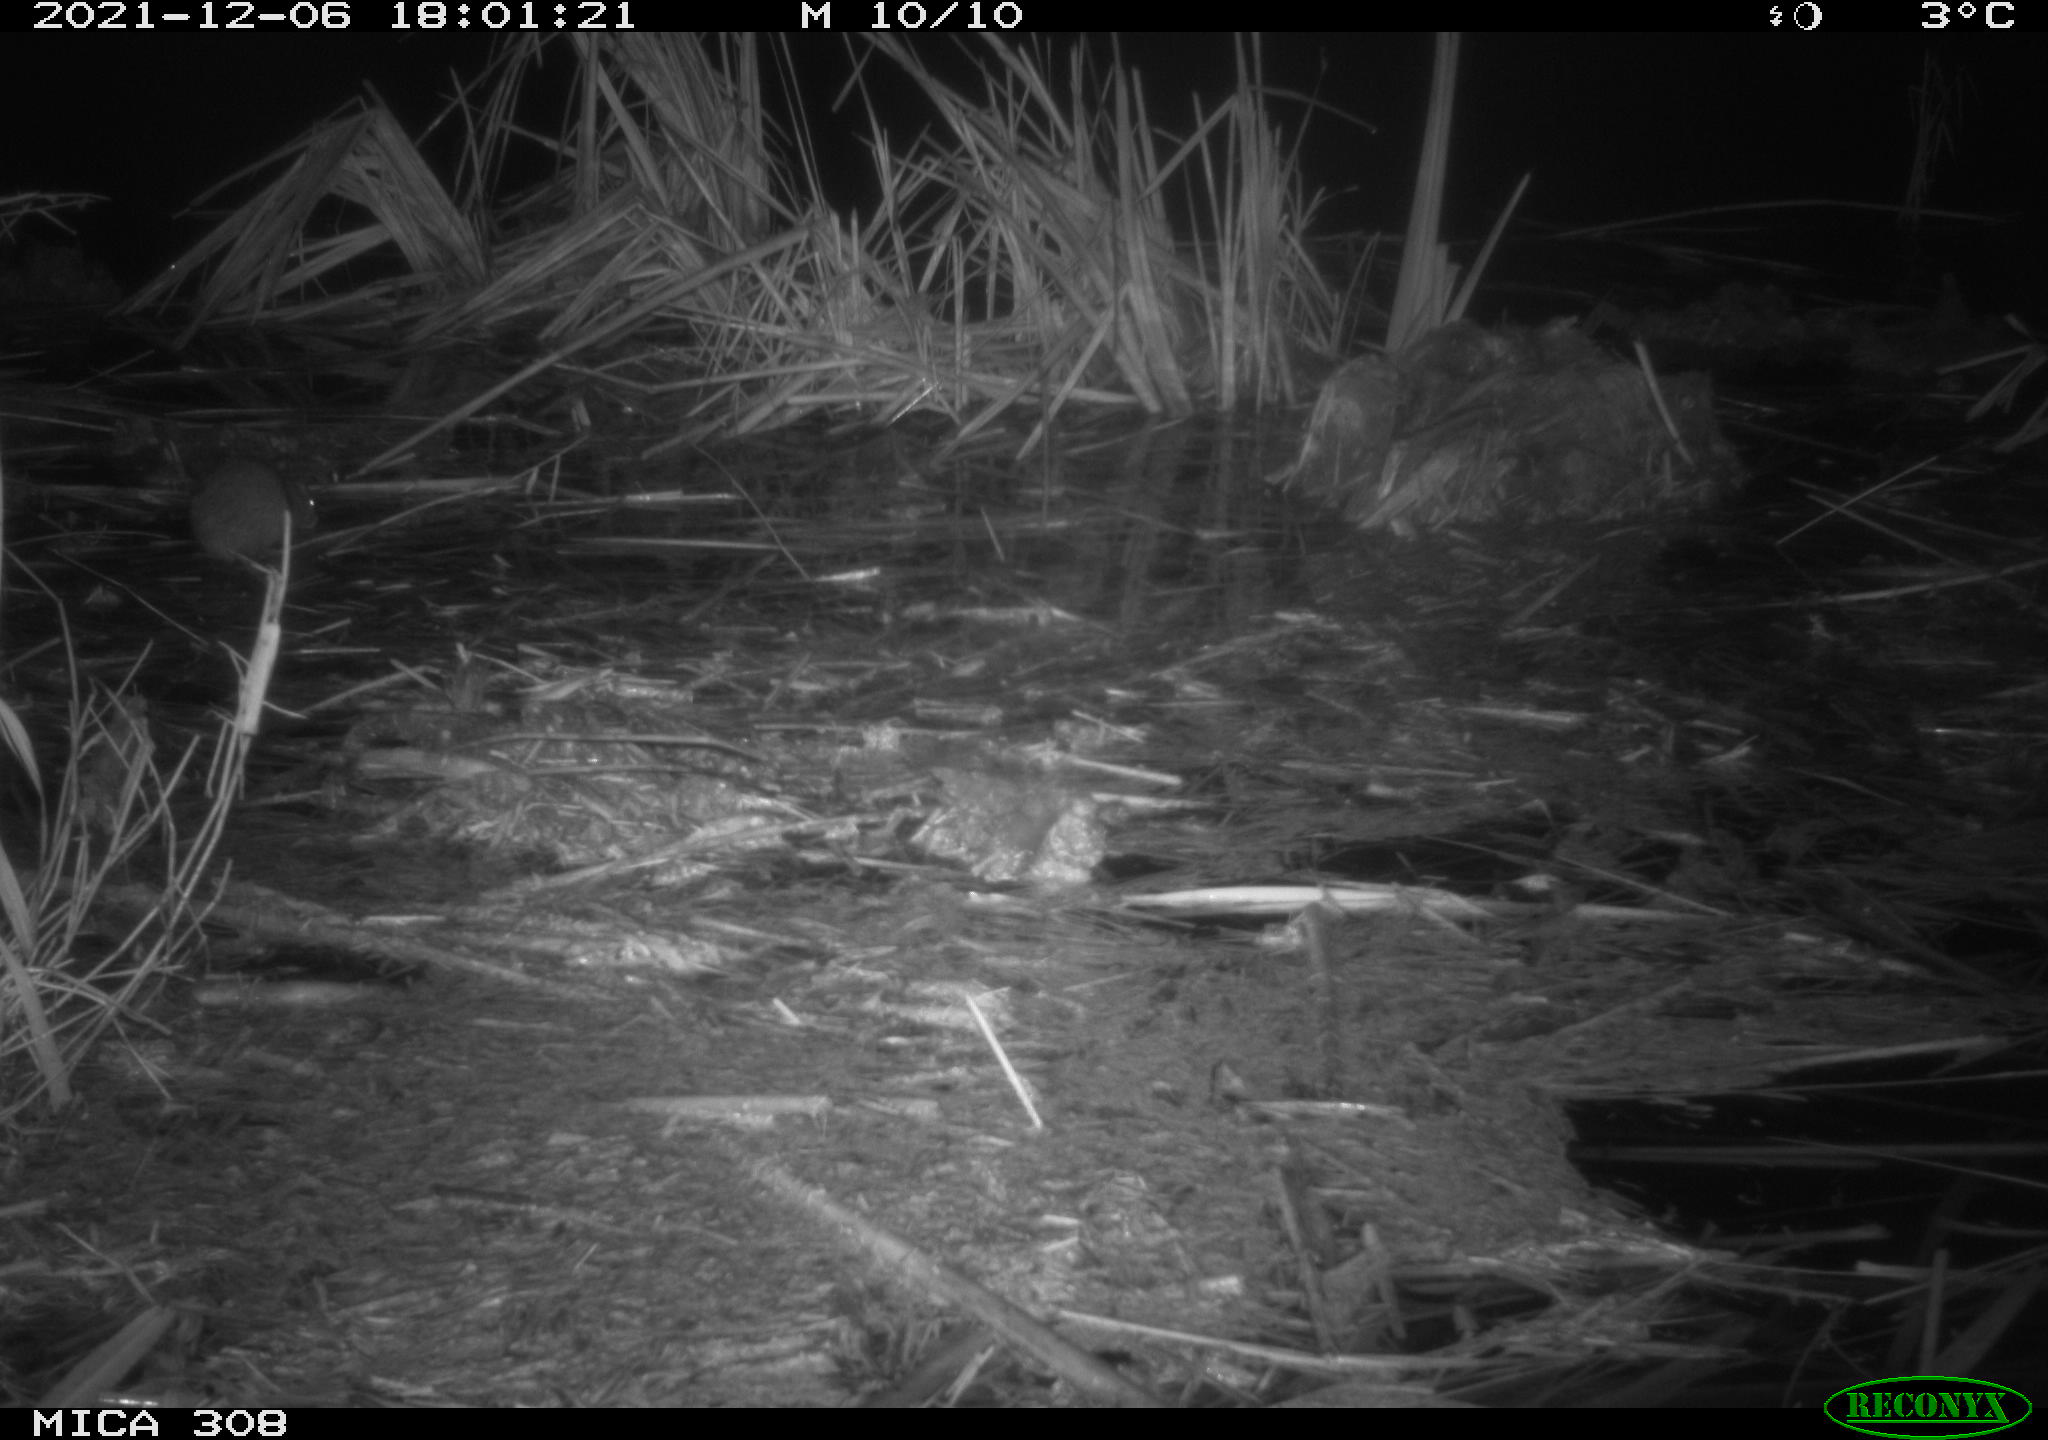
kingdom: Animalia
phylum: Chordata
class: Mammalia
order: Rodentia
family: Muridae
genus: Rattus
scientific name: Rattus norvegicus
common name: Brown rat
